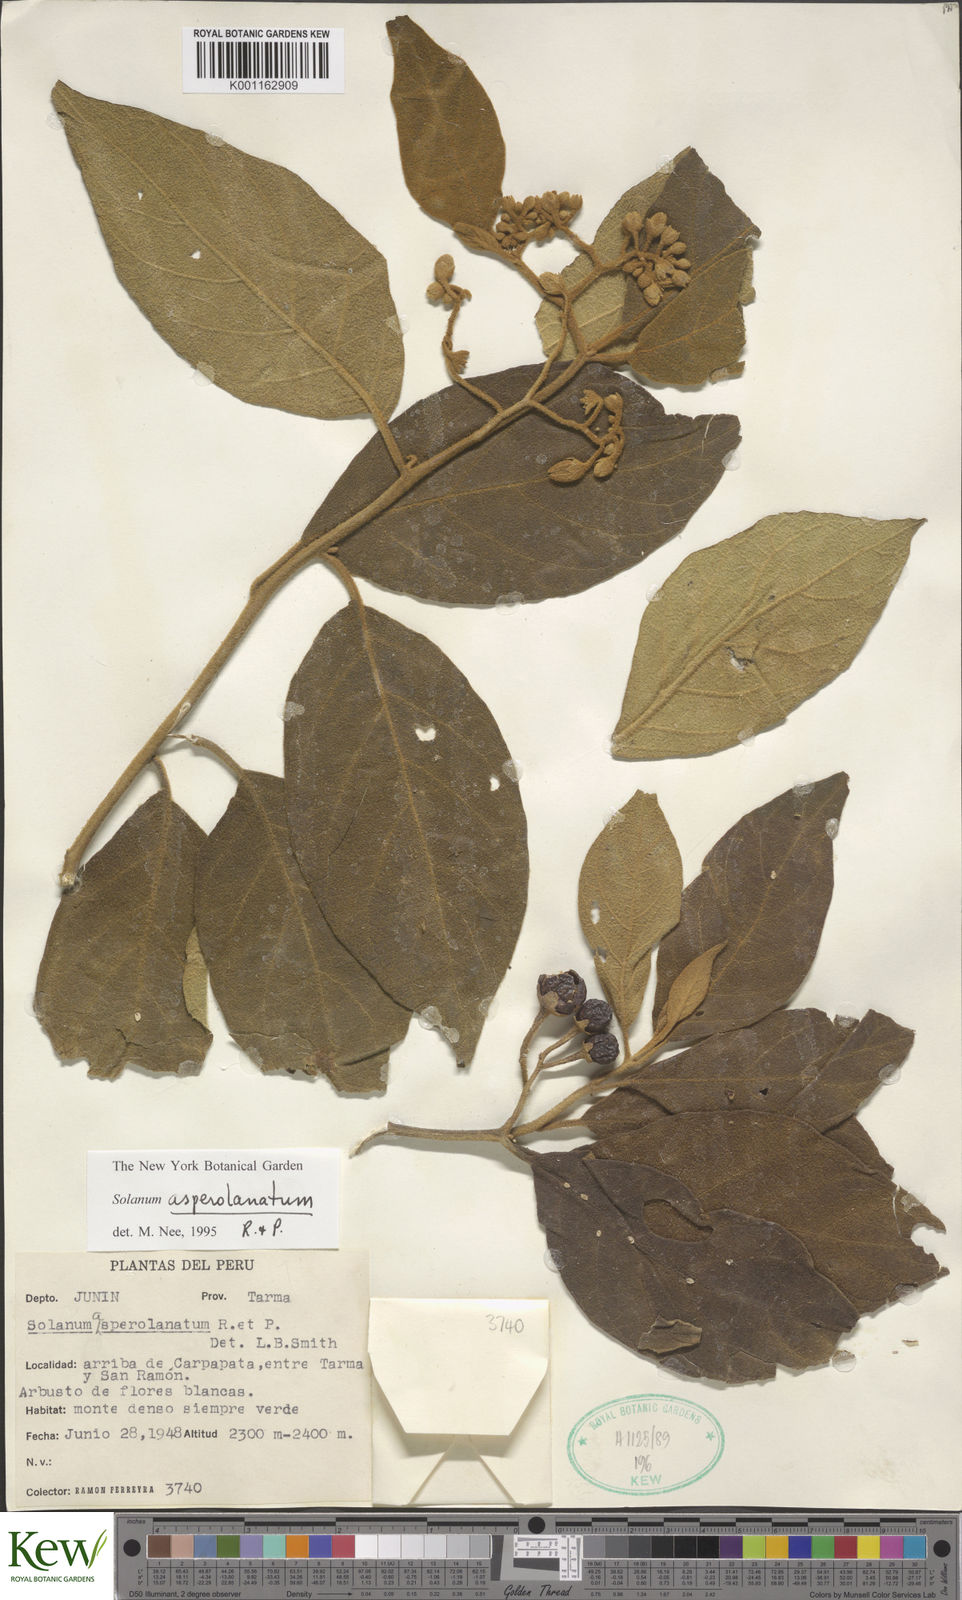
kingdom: Plantae
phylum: Tracheophyta
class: Magnoliopsida
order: Solanales
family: Solanaceae
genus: Solanum
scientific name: Solanum asperolanatum
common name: Devil's-fig
